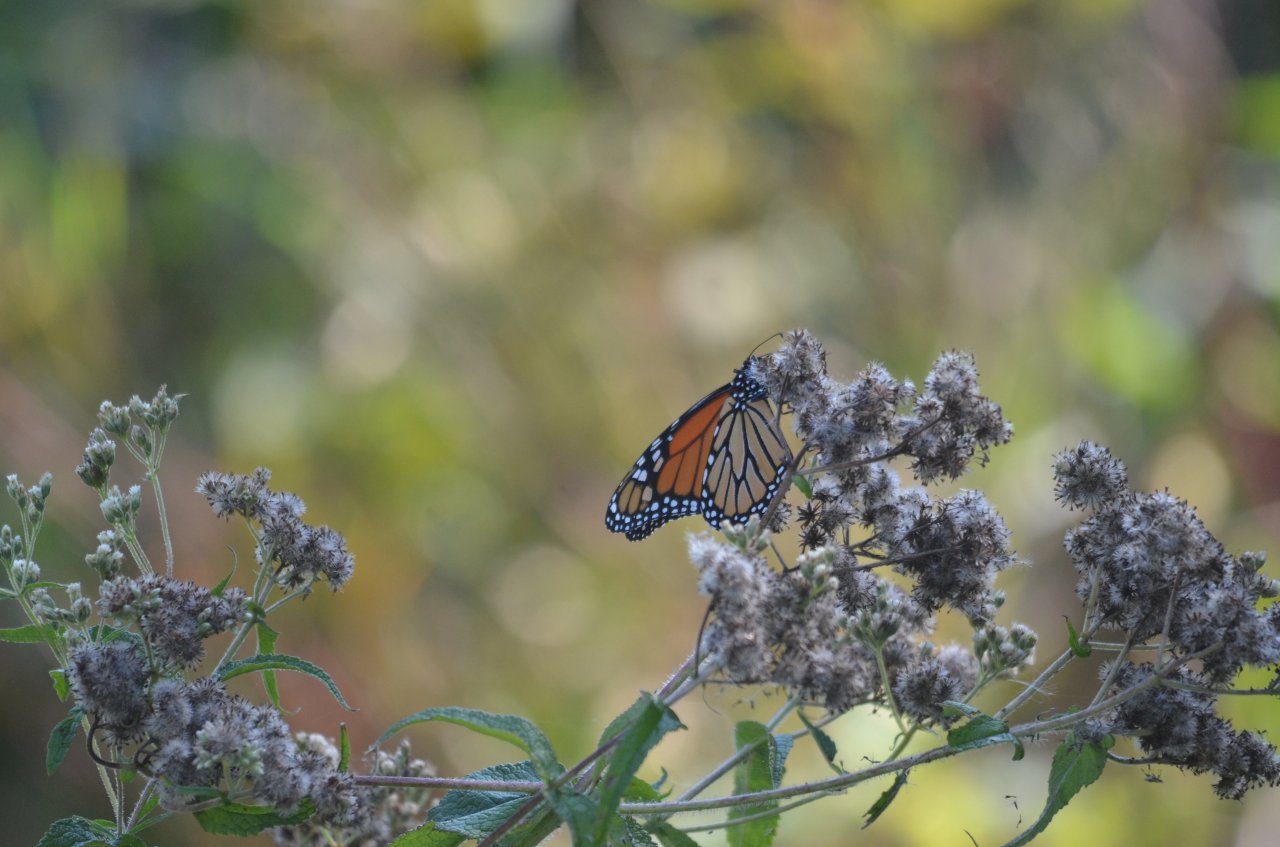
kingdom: Animalia
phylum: Arthropoda
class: Insecta
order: Lepidoptera
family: Nymphalidae
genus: Danaus
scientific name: Danaus plexippus
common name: Monarch
